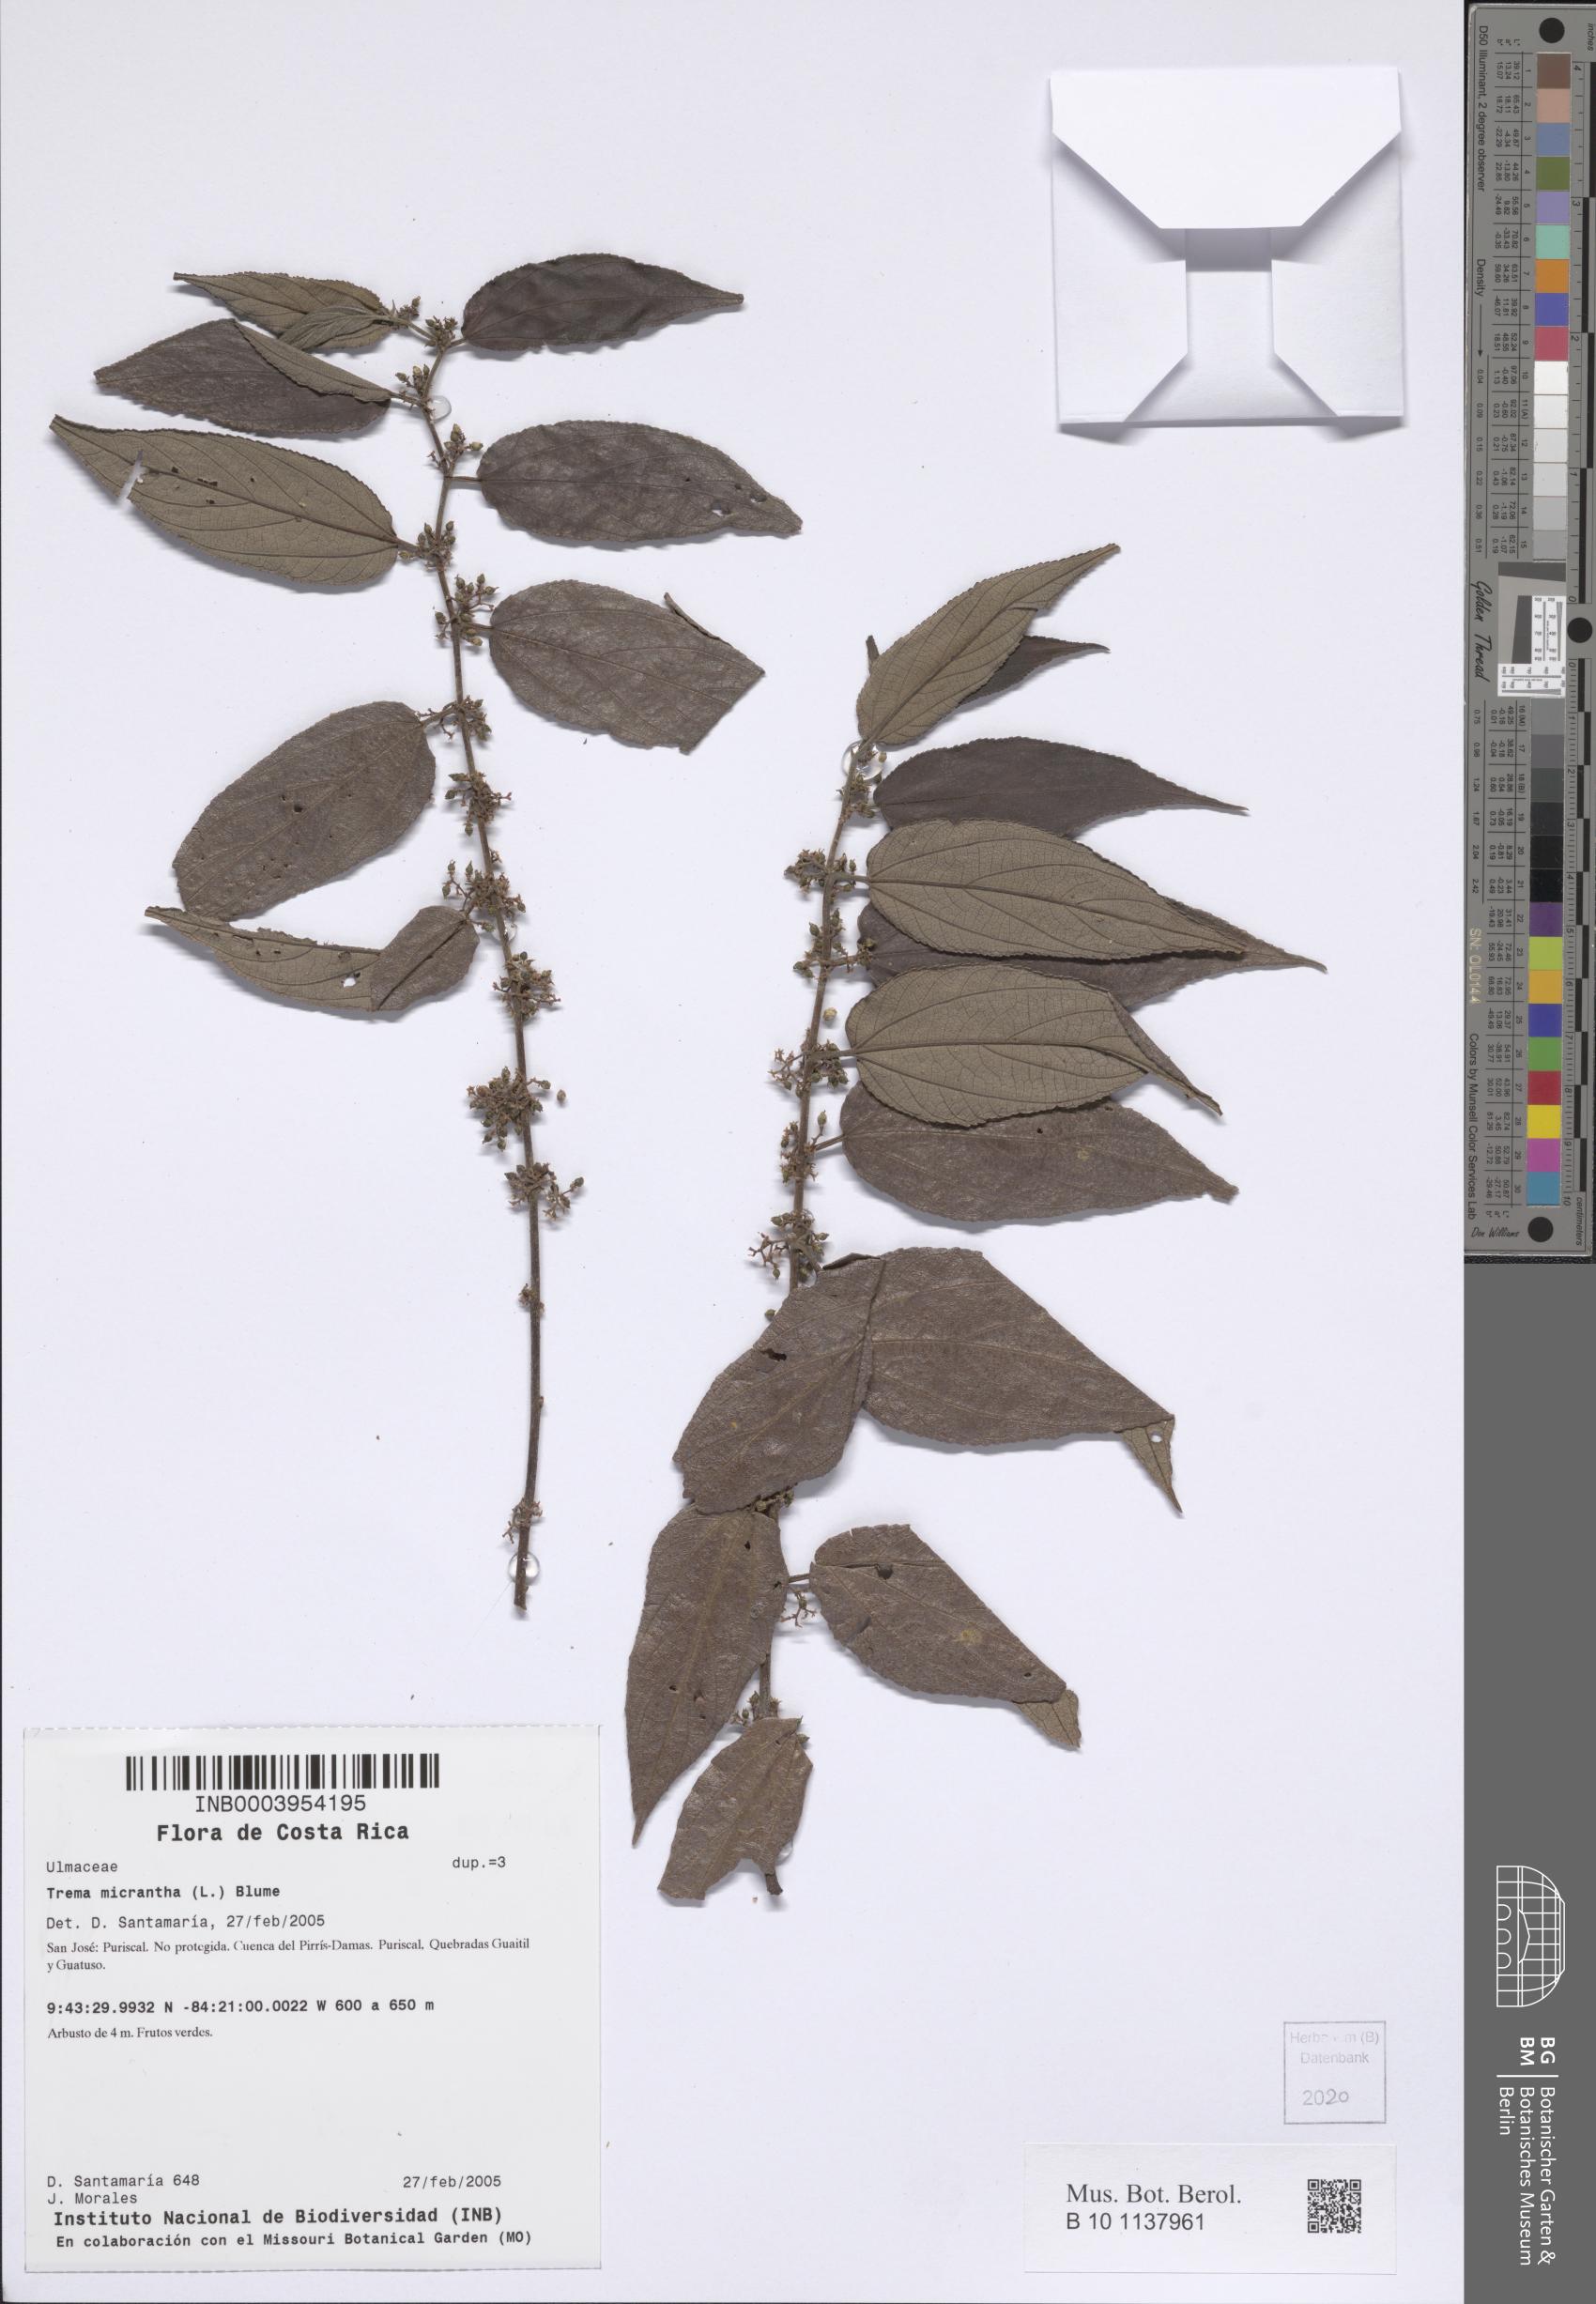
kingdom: Plantae
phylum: Tracheophyta
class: Magnoliopsida
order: Rosales
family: Cannabaceae
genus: Trema
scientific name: Trema micranthum
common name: Jamaican nettletree
